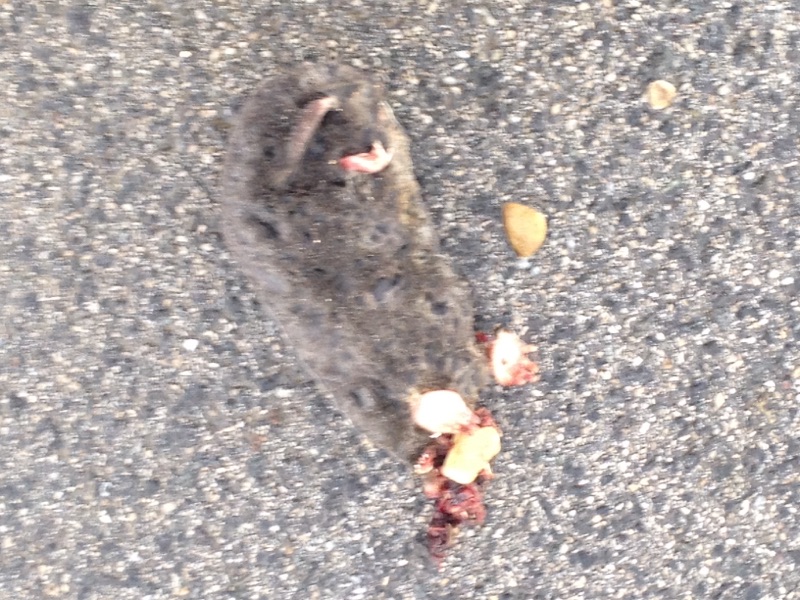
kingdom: Animalia
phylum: Chordata
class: Mammalia
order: Soricomorpha
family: Talpidae
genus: Talpa
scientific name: Talpa europaea
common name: European mole
